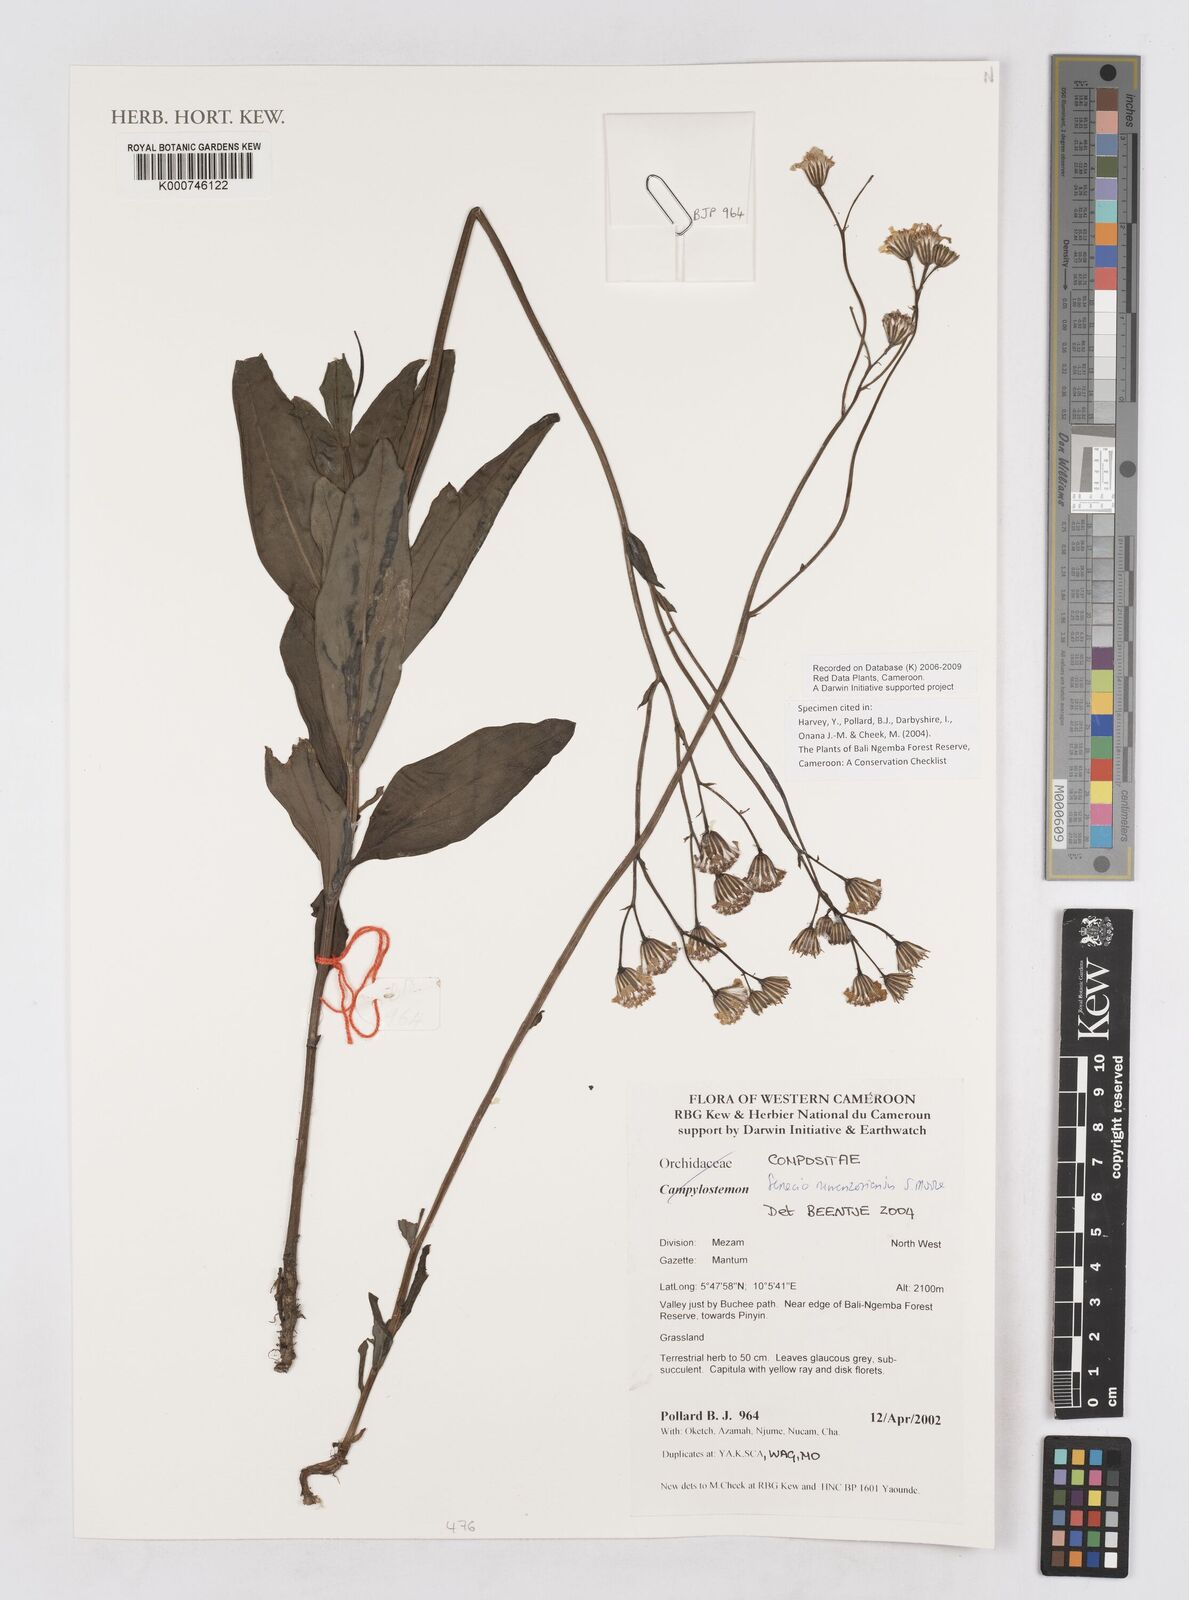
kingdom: Plantae
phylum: Tracheophyta
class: Magnoliopsida
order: Asterales
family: Asteraceae
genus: Senecio
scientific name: Senecio ruwenzoriensis
